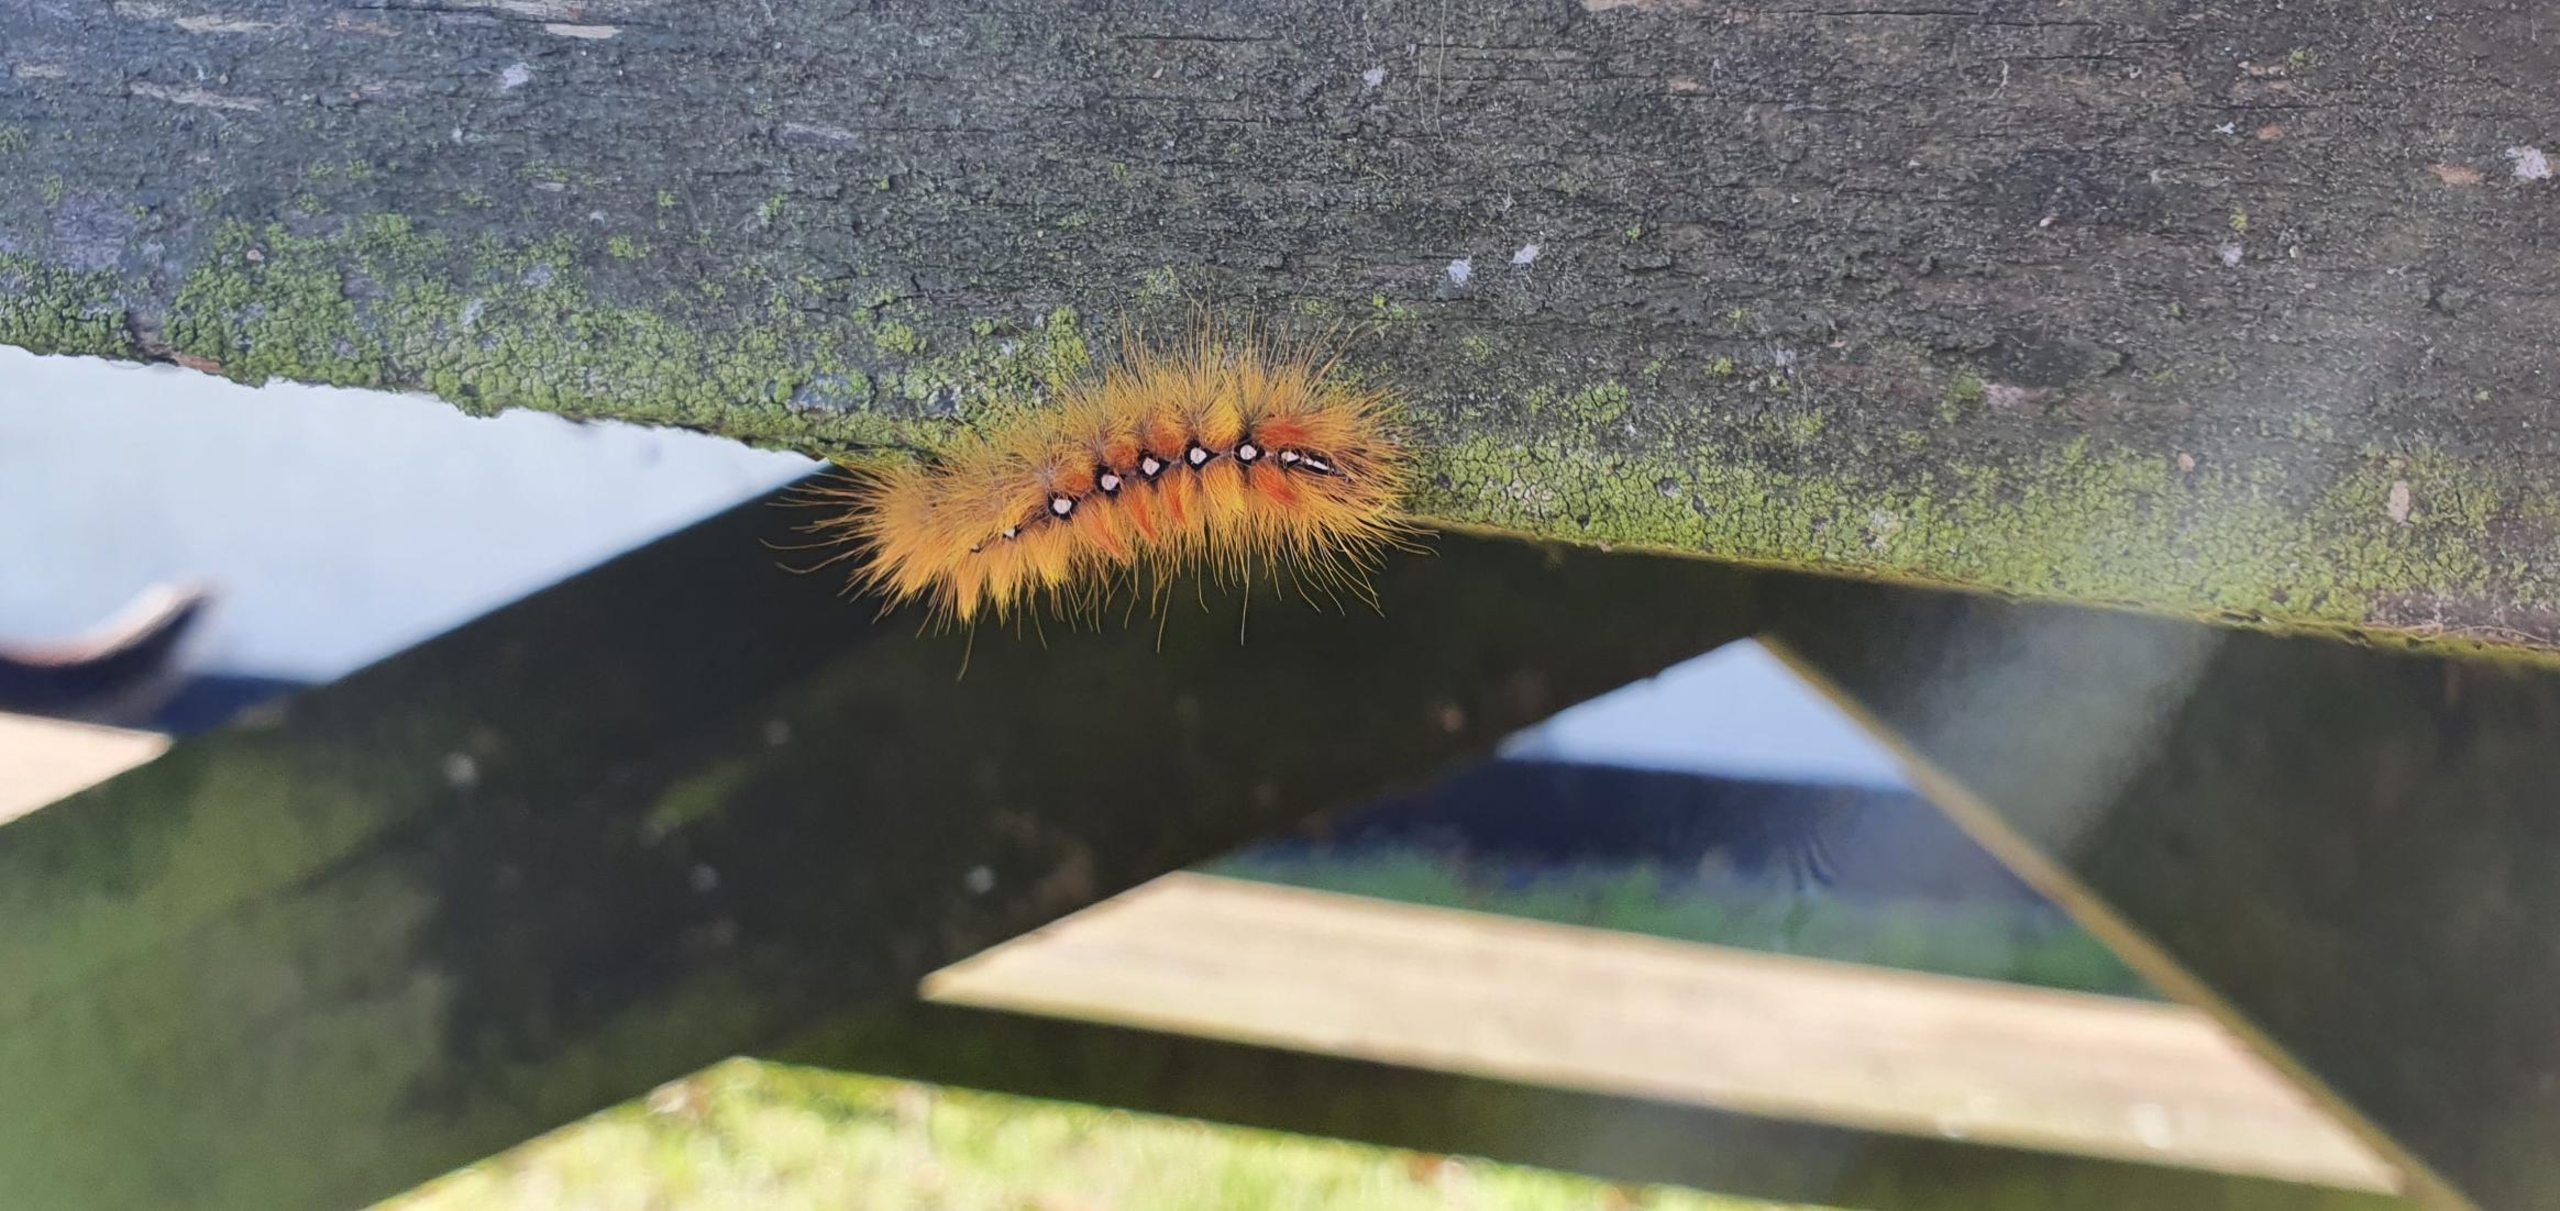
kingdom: Animalia
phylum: Arthropoda
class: Insecta
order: Lepidoptera
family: Noctuidae
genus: Acronicta
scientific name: Acronicta aceris
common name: Ahornugle
